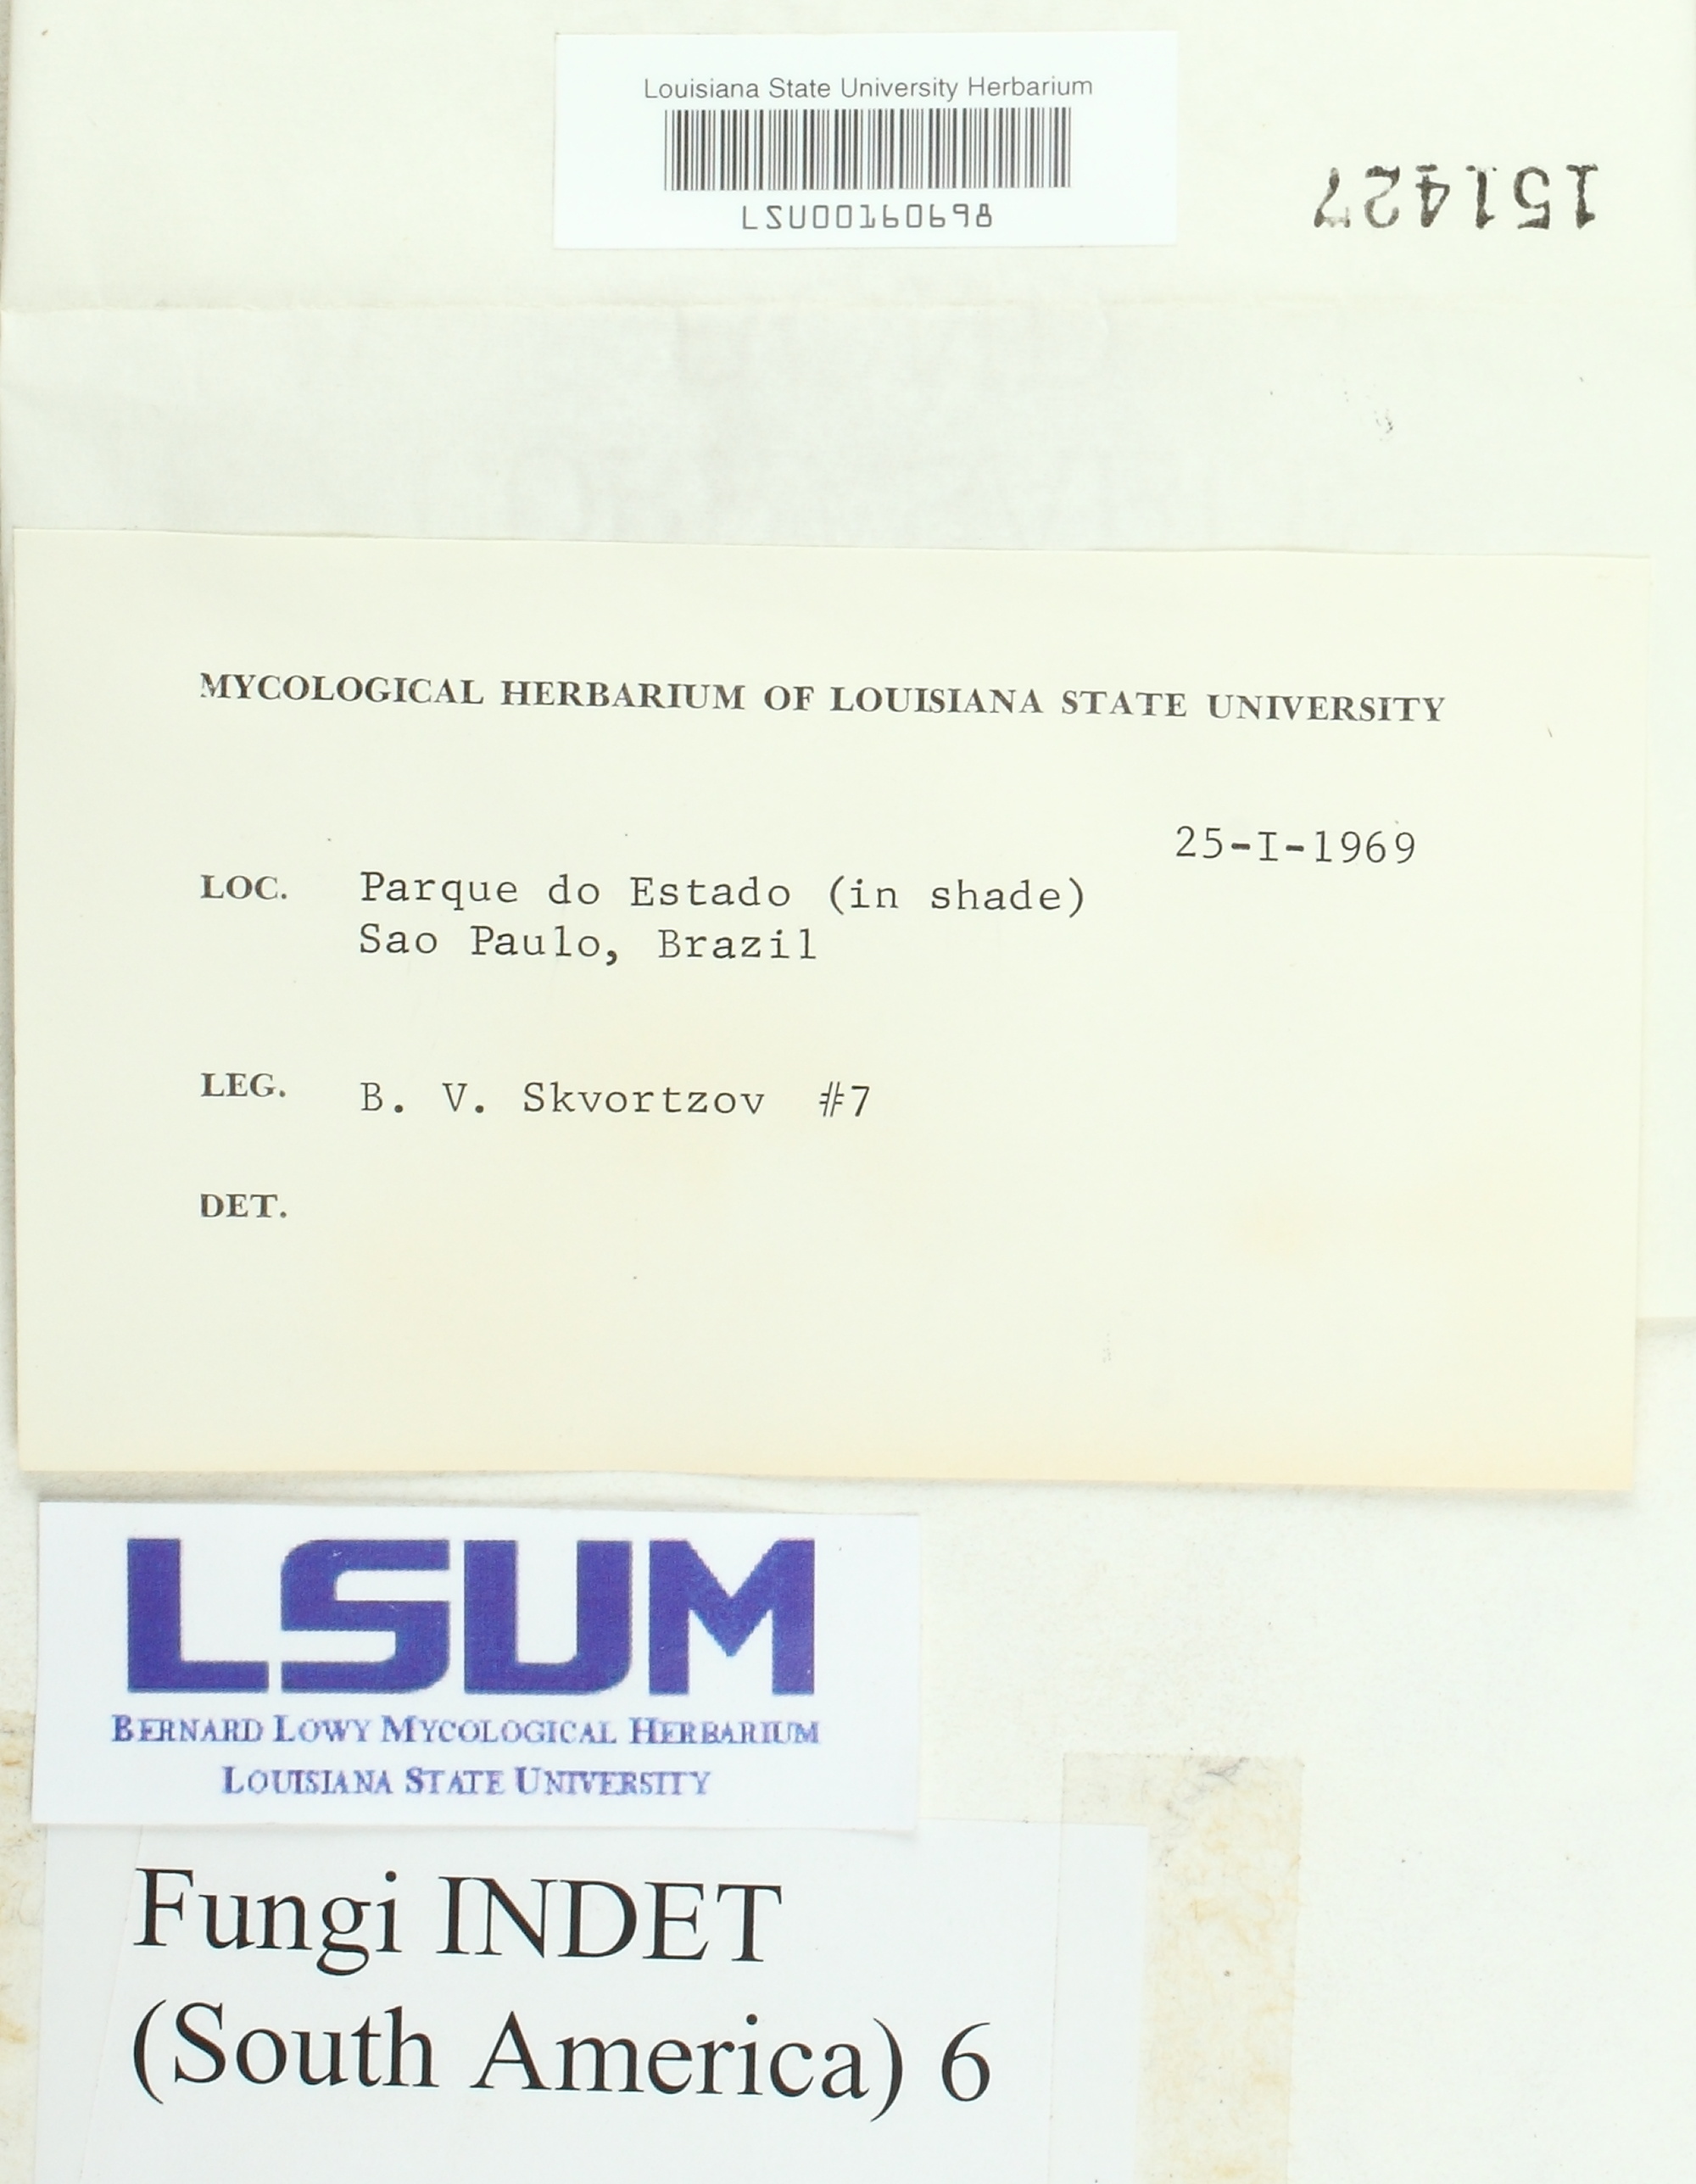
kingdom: Fungi
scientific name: Fungi
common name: Fungi
